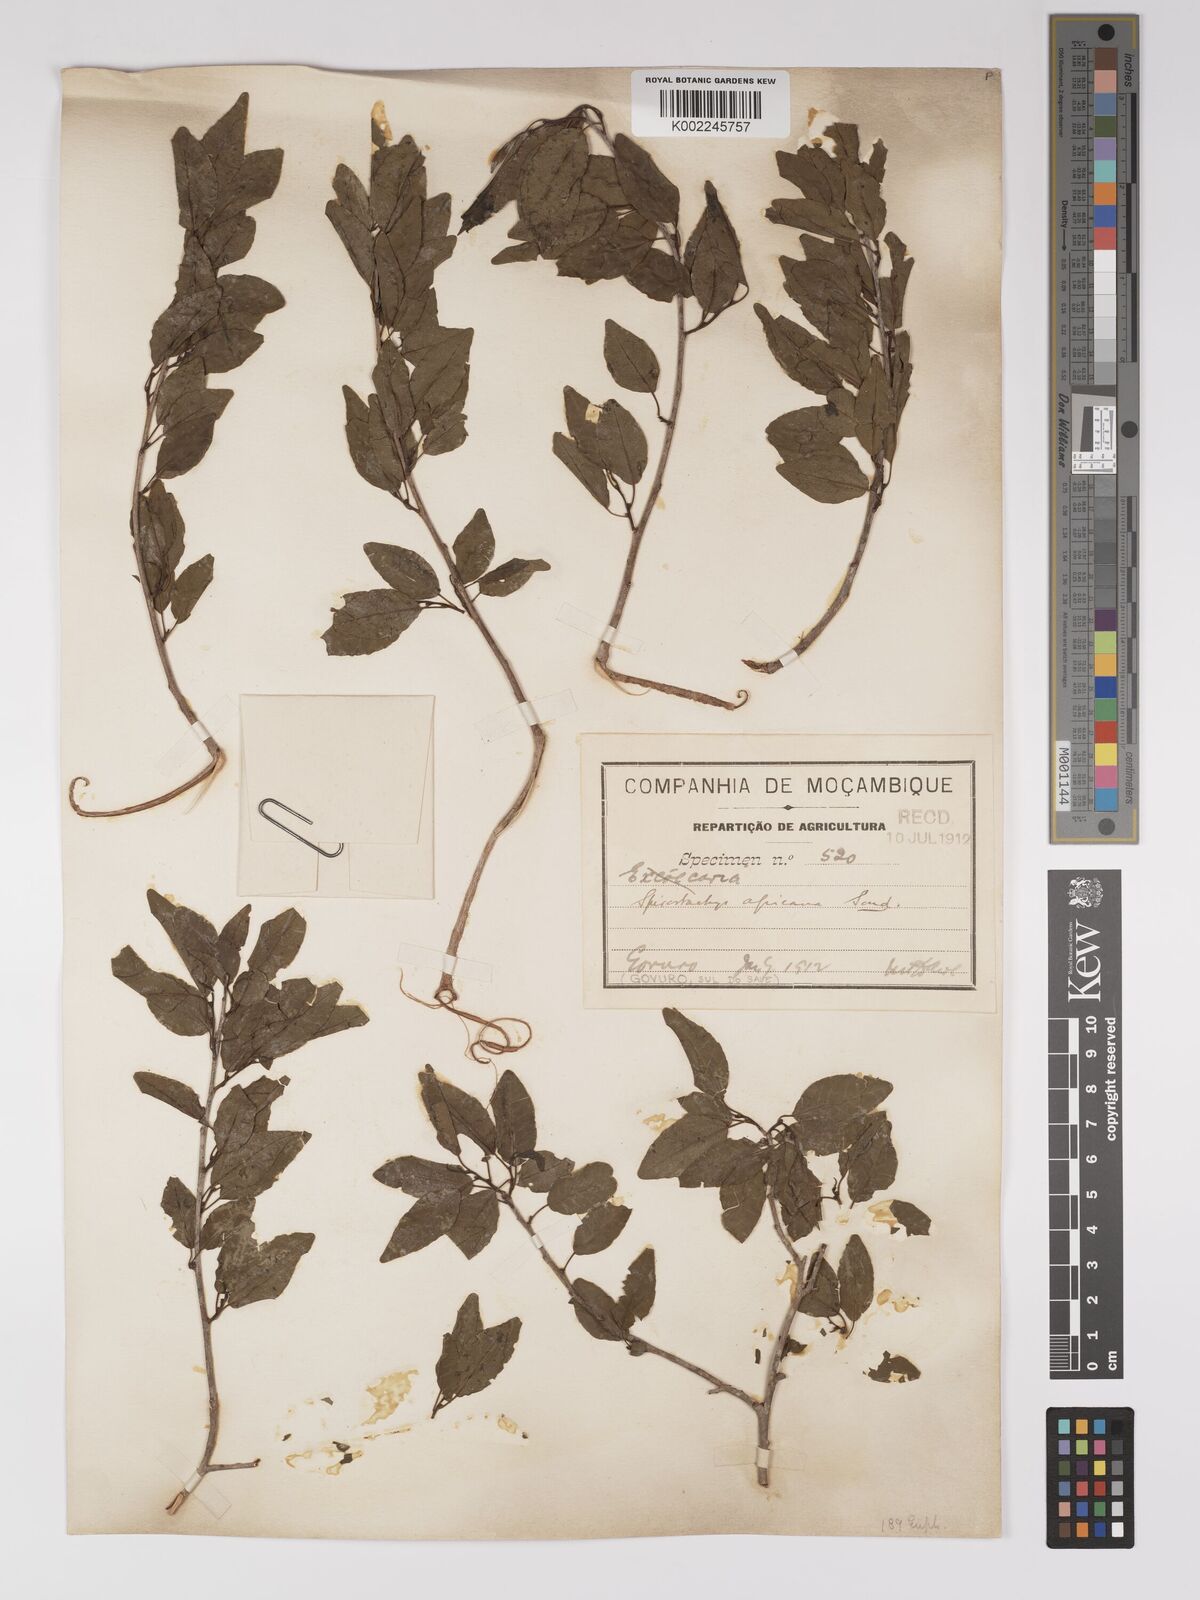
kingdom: Plantae
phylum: Tracheophyta
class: Magnoliopsida
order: Malpighiales
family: Euphorbiaceae
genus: Spirostachys
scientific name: Spirostachys africana
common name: Tamboti
